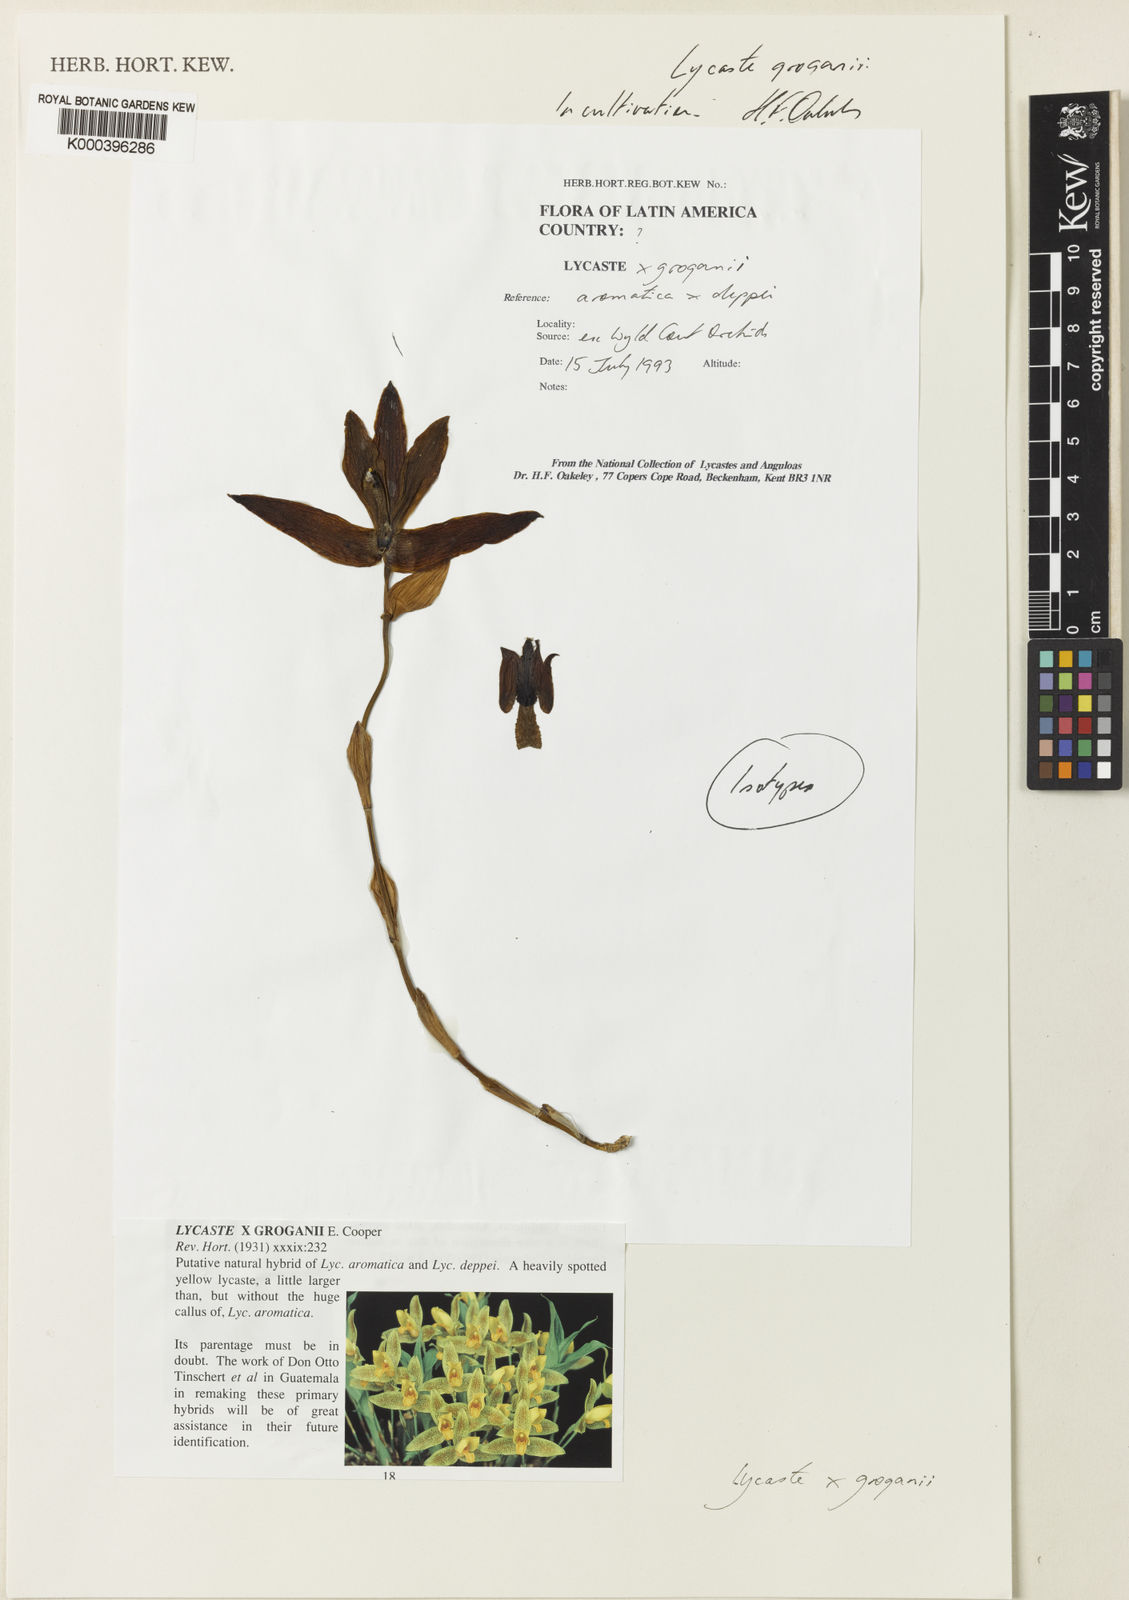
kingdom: Plantae
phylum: Tracheophyta
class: Liliopsida
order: Asparagales
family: Orchidaceae
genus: Lycaste
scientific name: Lycaste groganii
